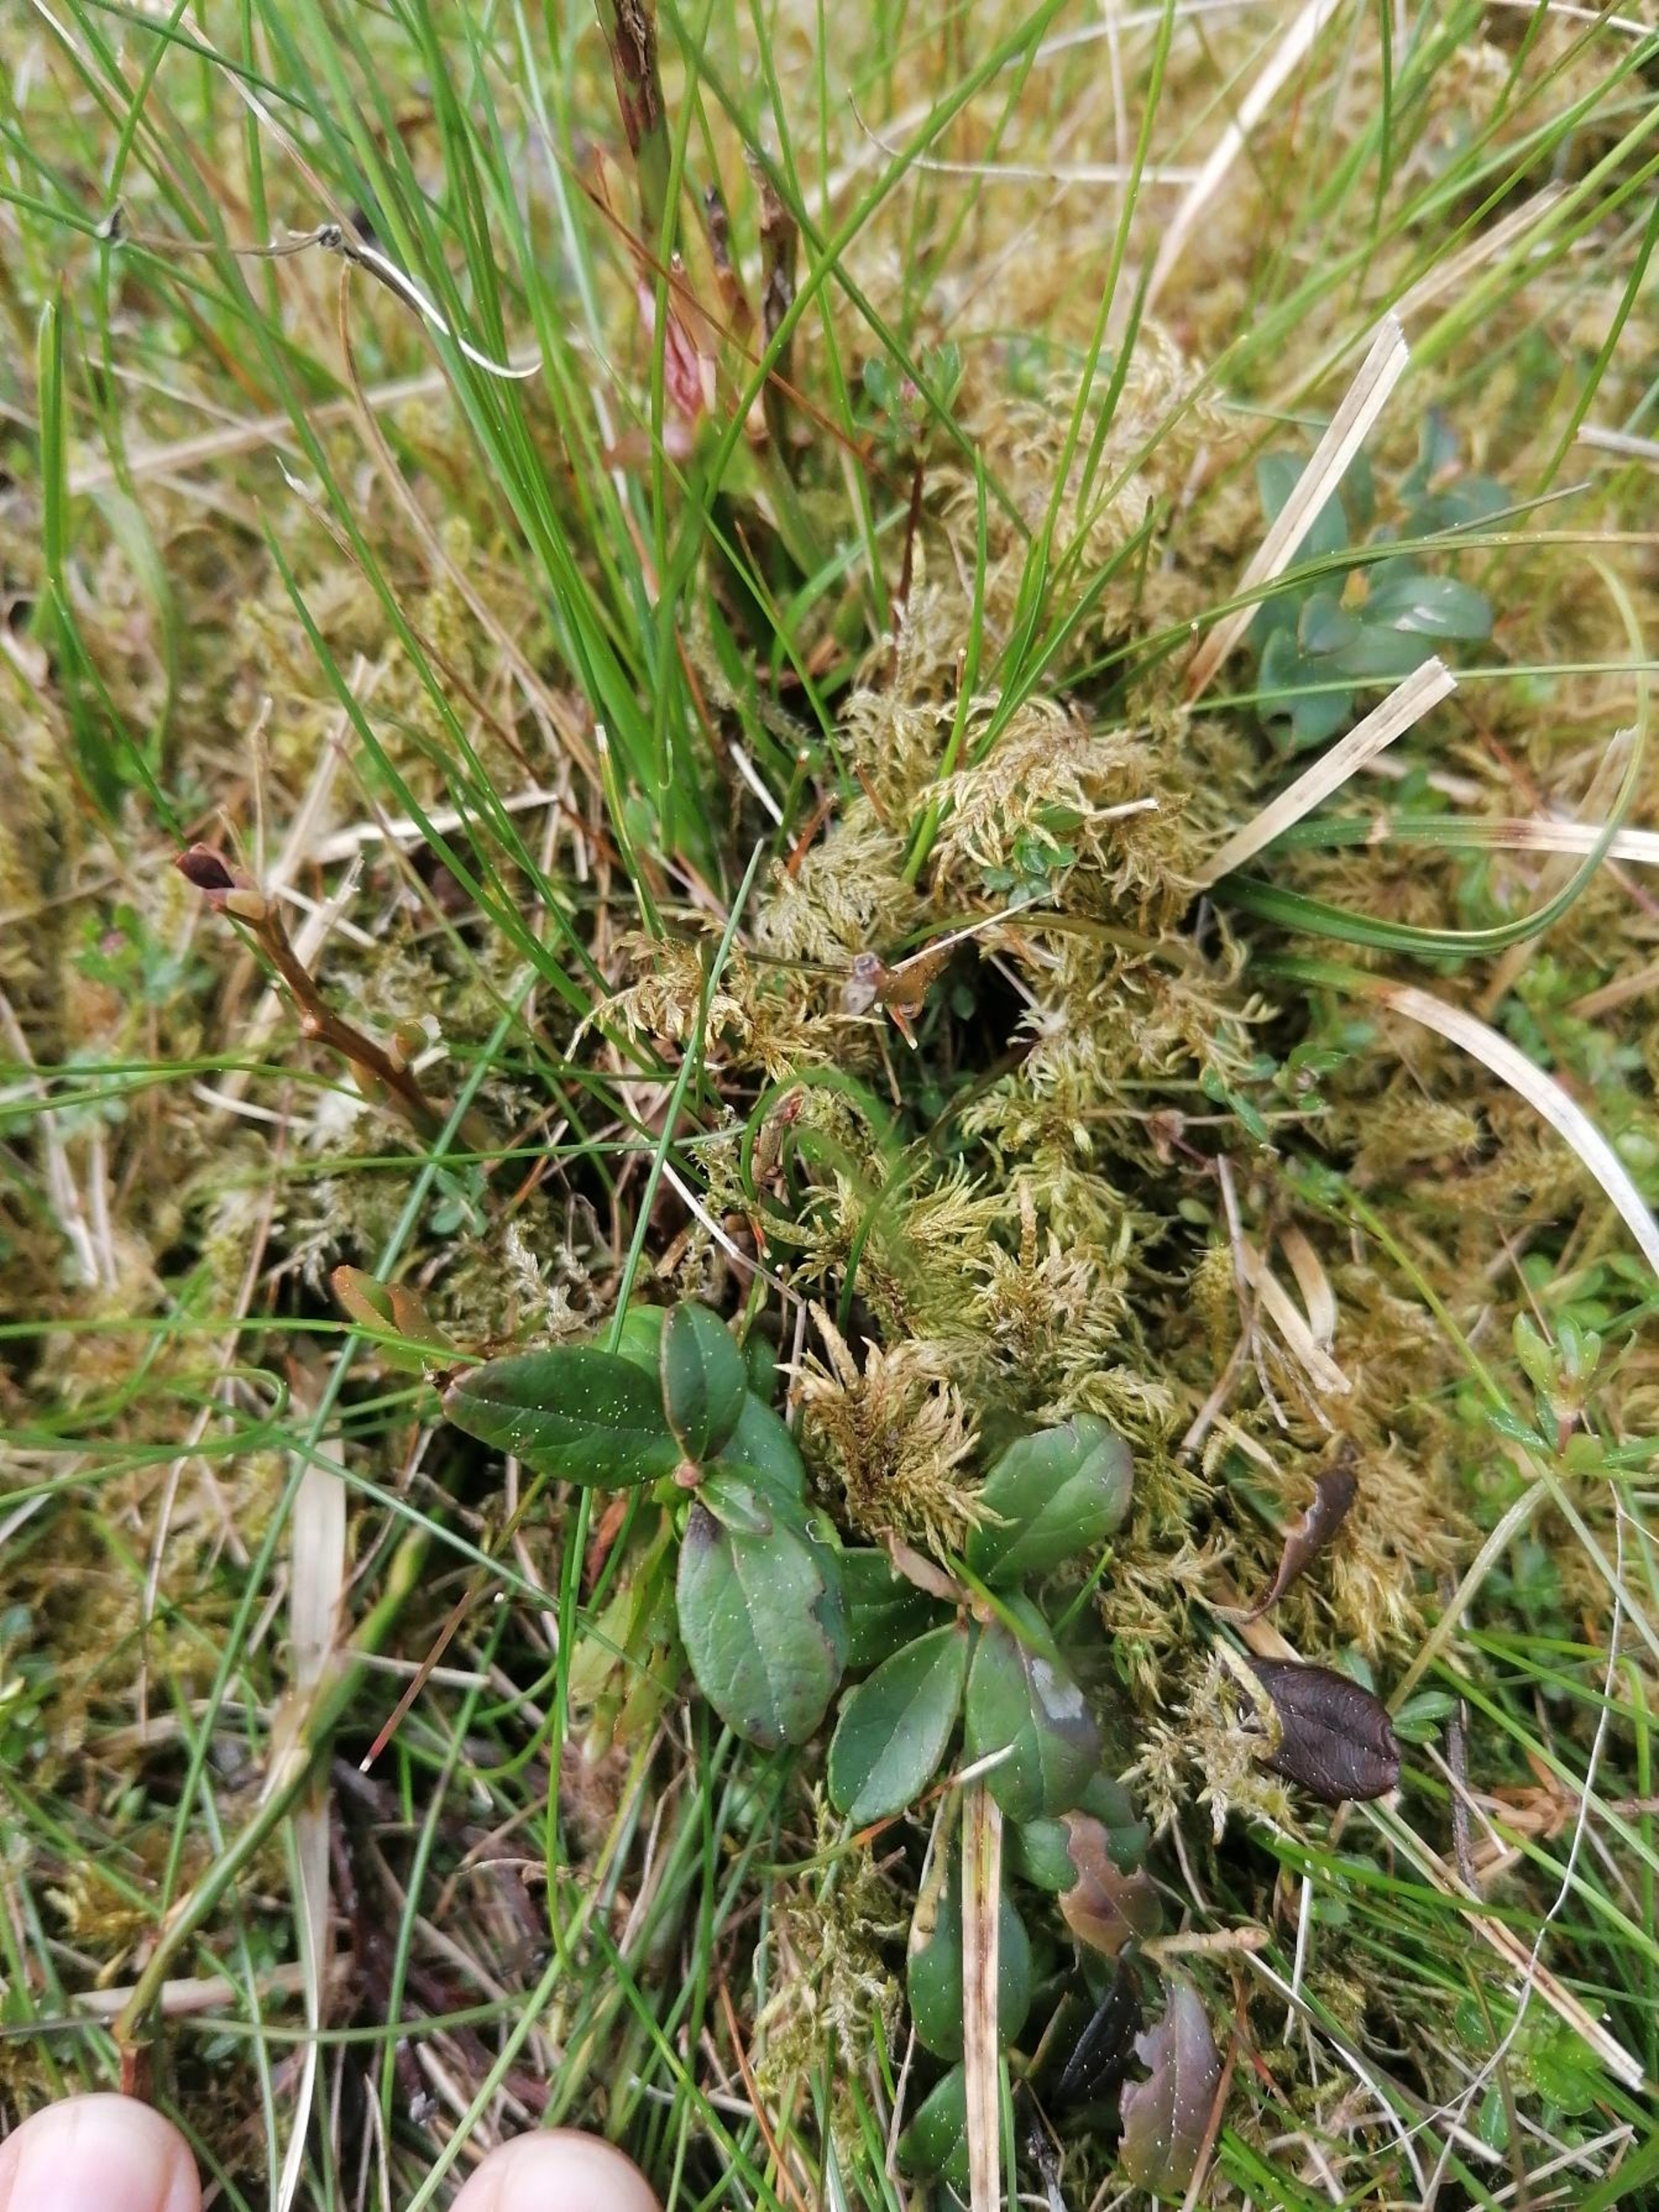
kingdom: Plantae
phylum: Tracheophyta
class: Magnoliopsida
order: Ericales
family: Ericaceae
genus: Vaccinium
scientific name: Vaccinium vitis-idaea
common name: Tyttebær
